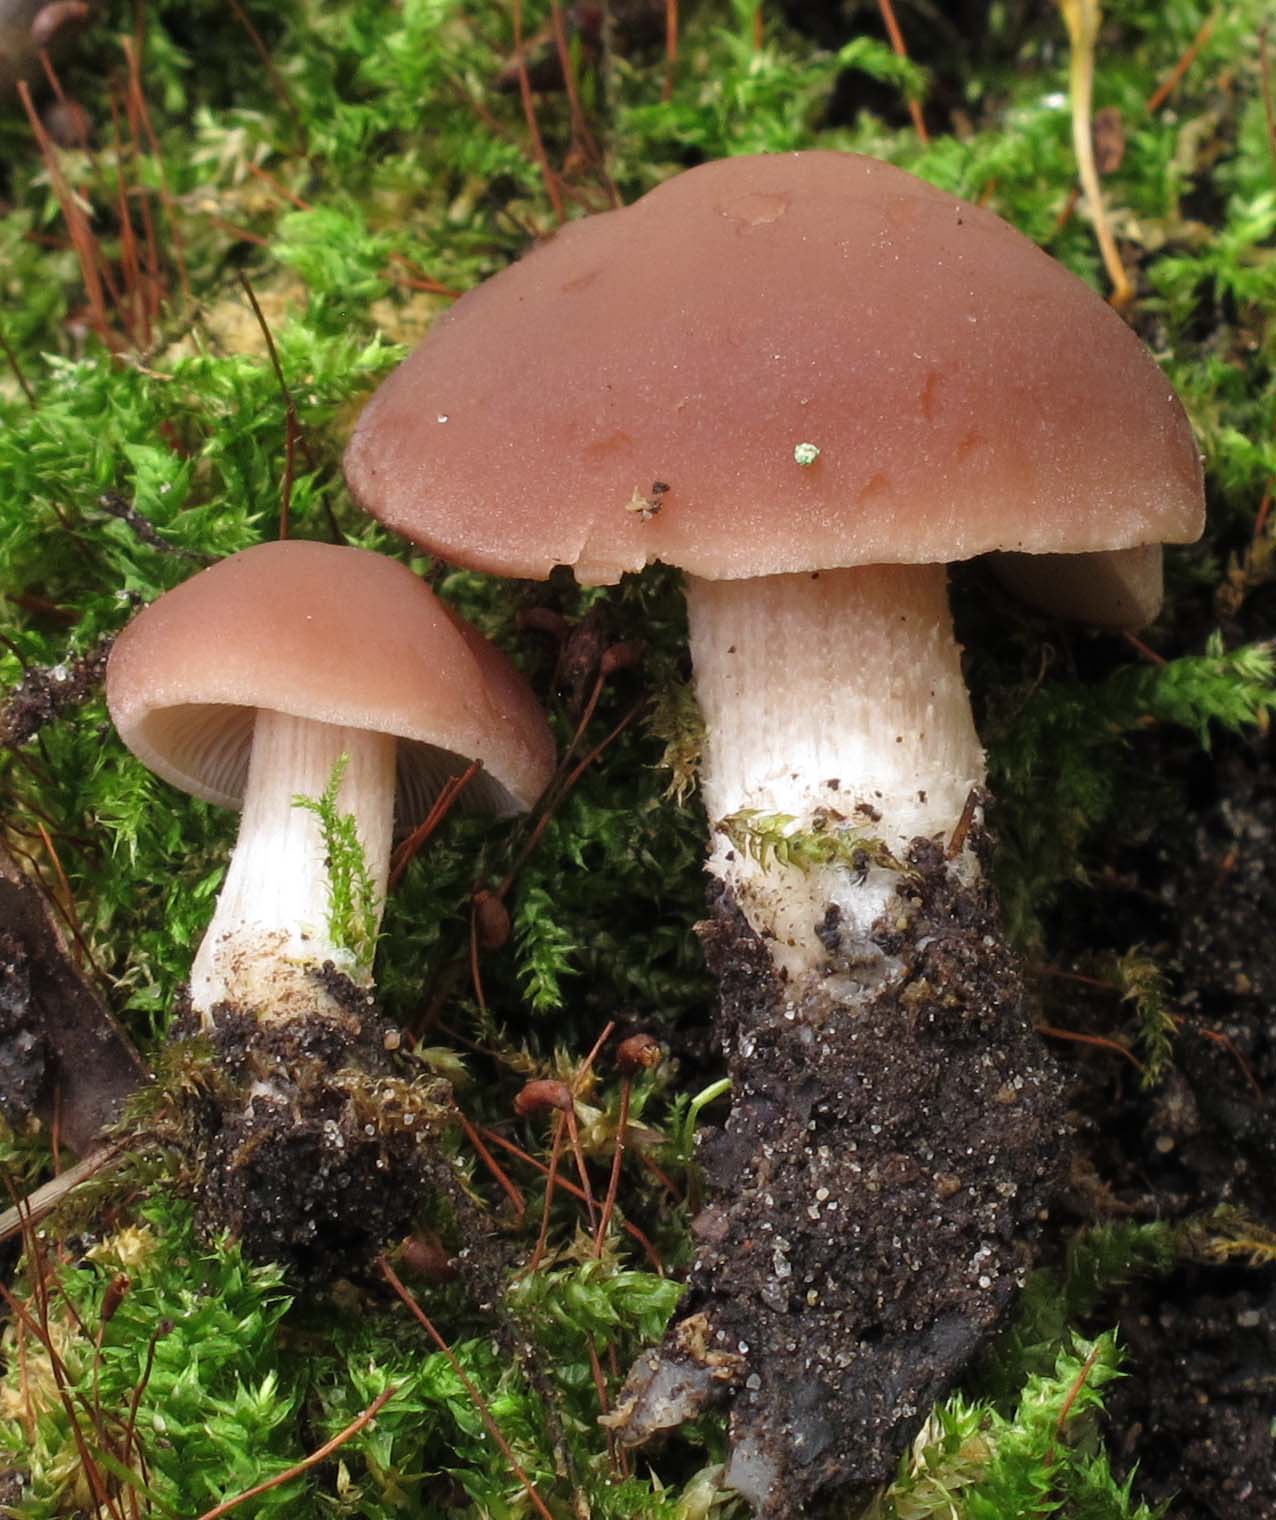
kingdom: Fungi
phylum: Basidiomycota
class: Agaricomycetes
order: Agaricales
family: Strophariaceae
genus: Agrocybe
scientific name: Agrocybe firma
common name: tobaksbrun agerhat
